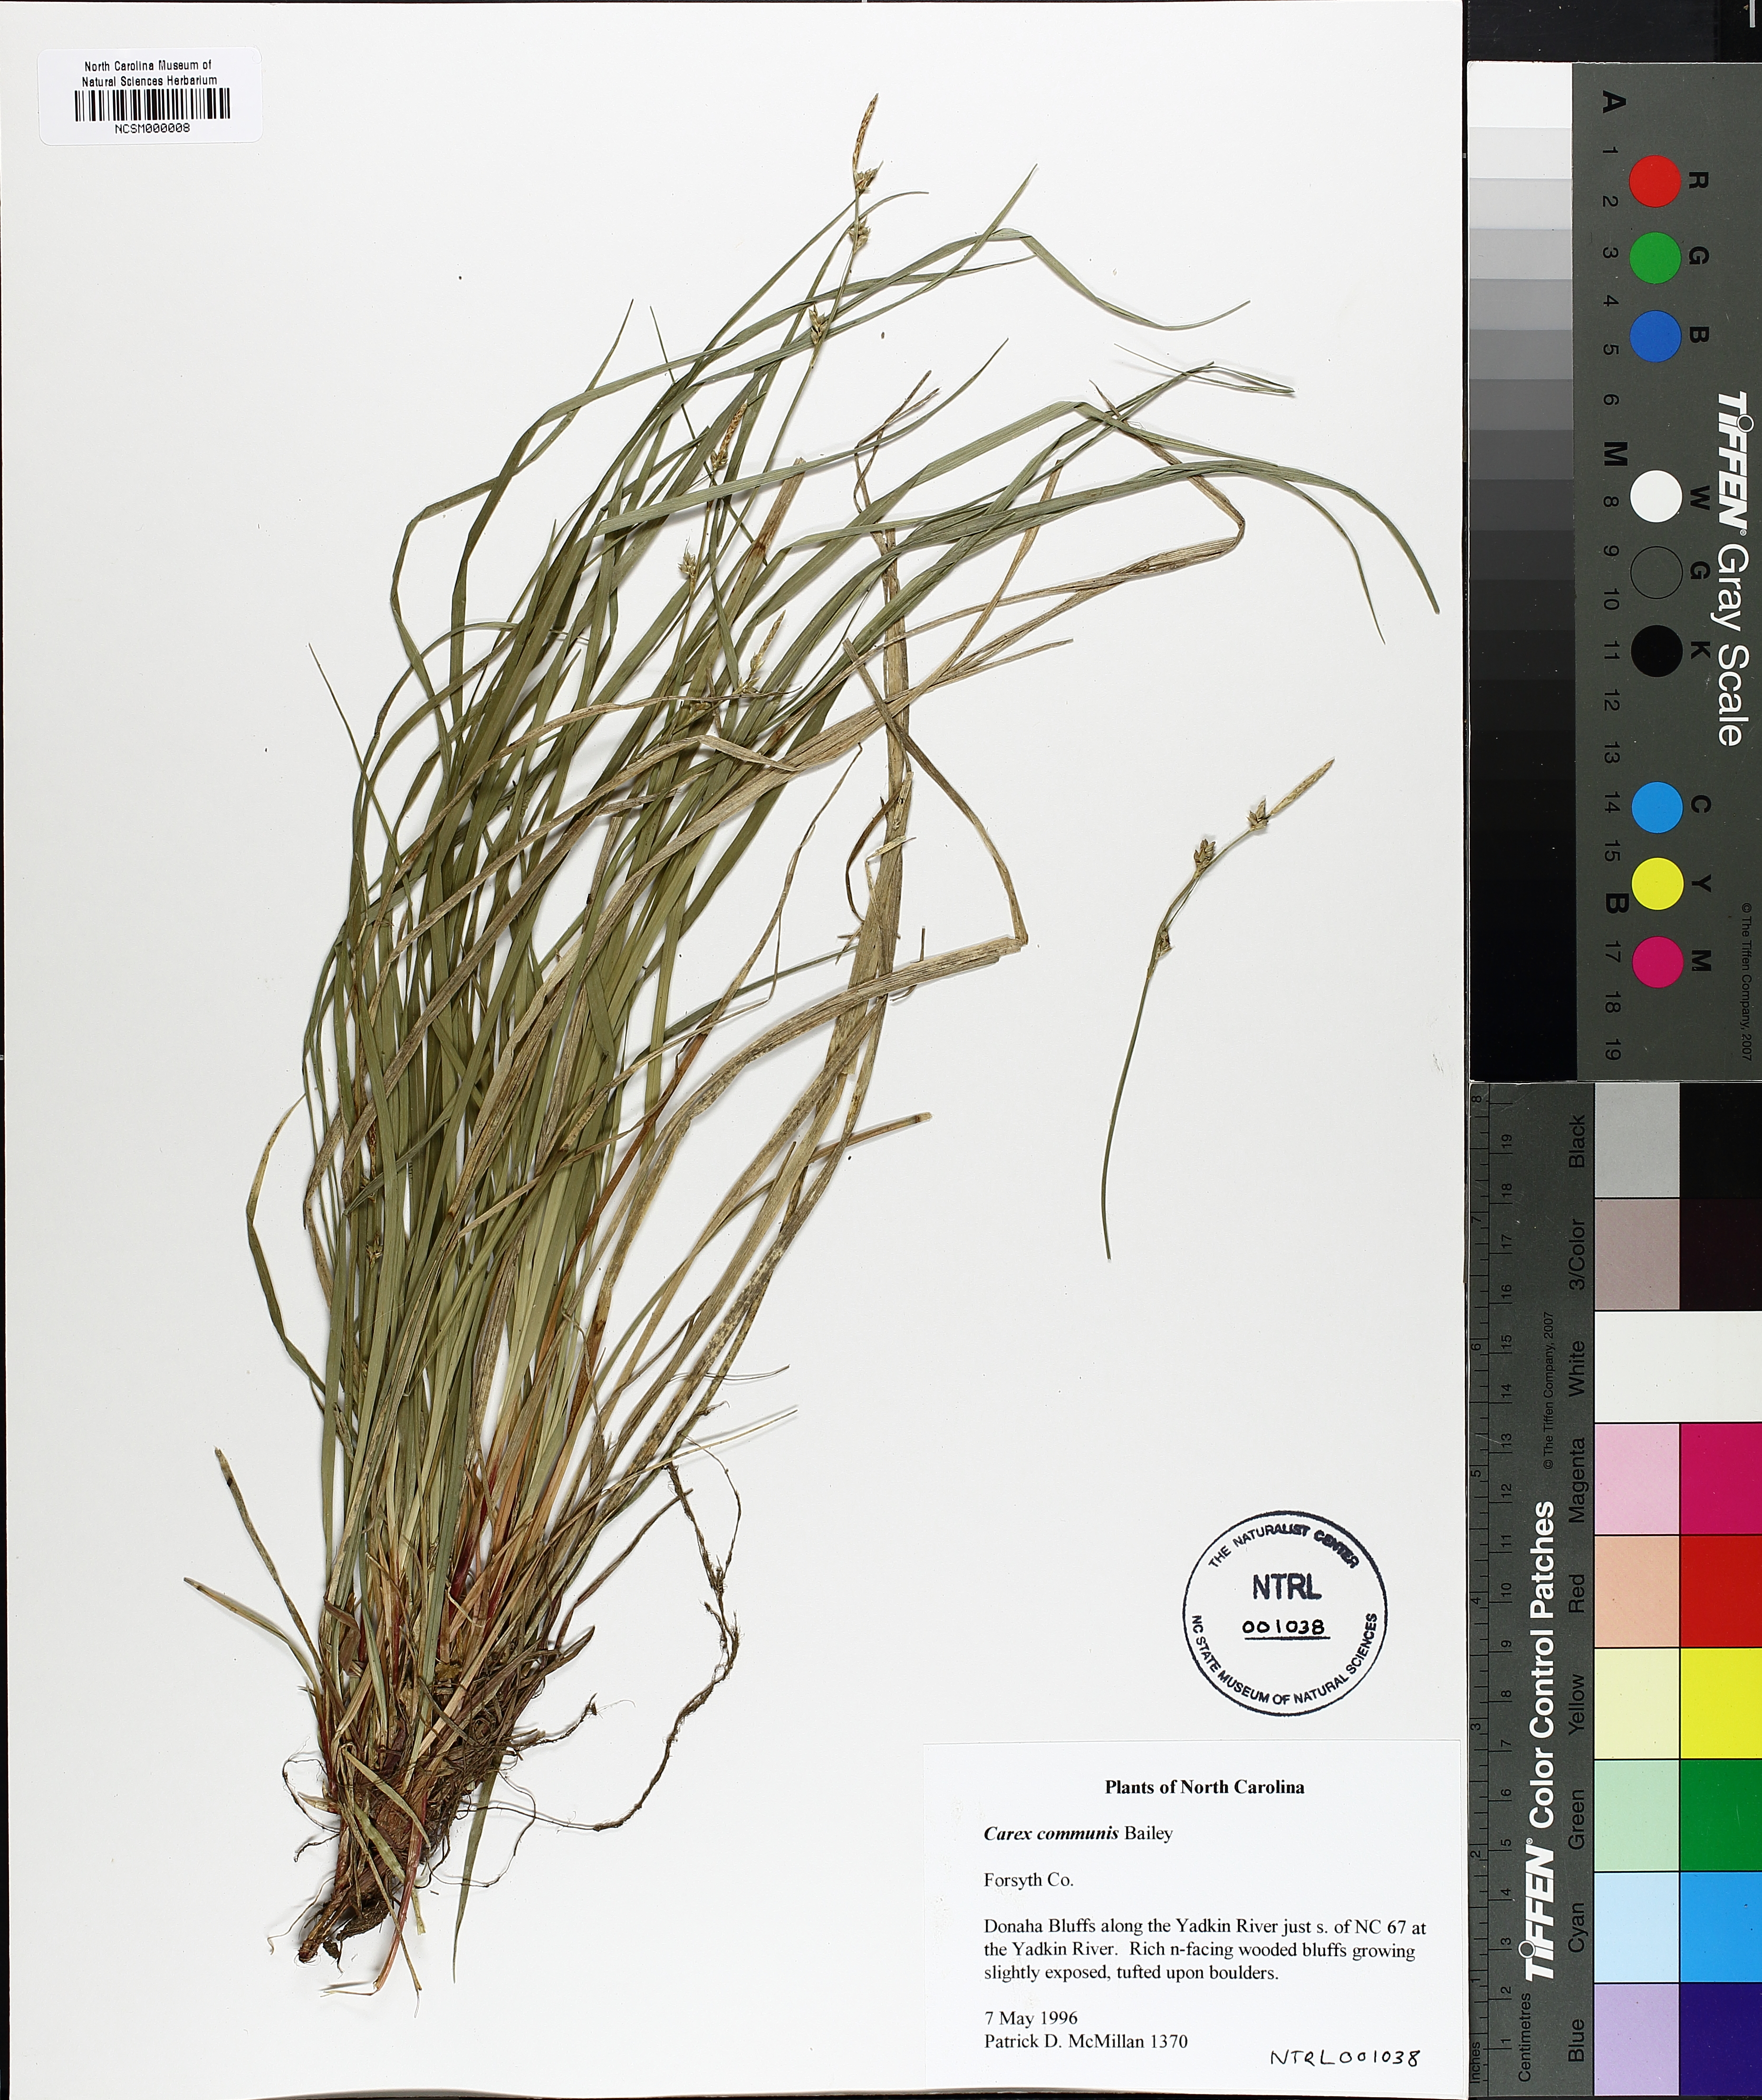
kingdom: Plantae
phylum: Tracheophyta
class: Liliopsida
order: Poales
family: Cyperaceae
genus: Carex
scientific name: Carex communis
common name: Colonial oak sedge
